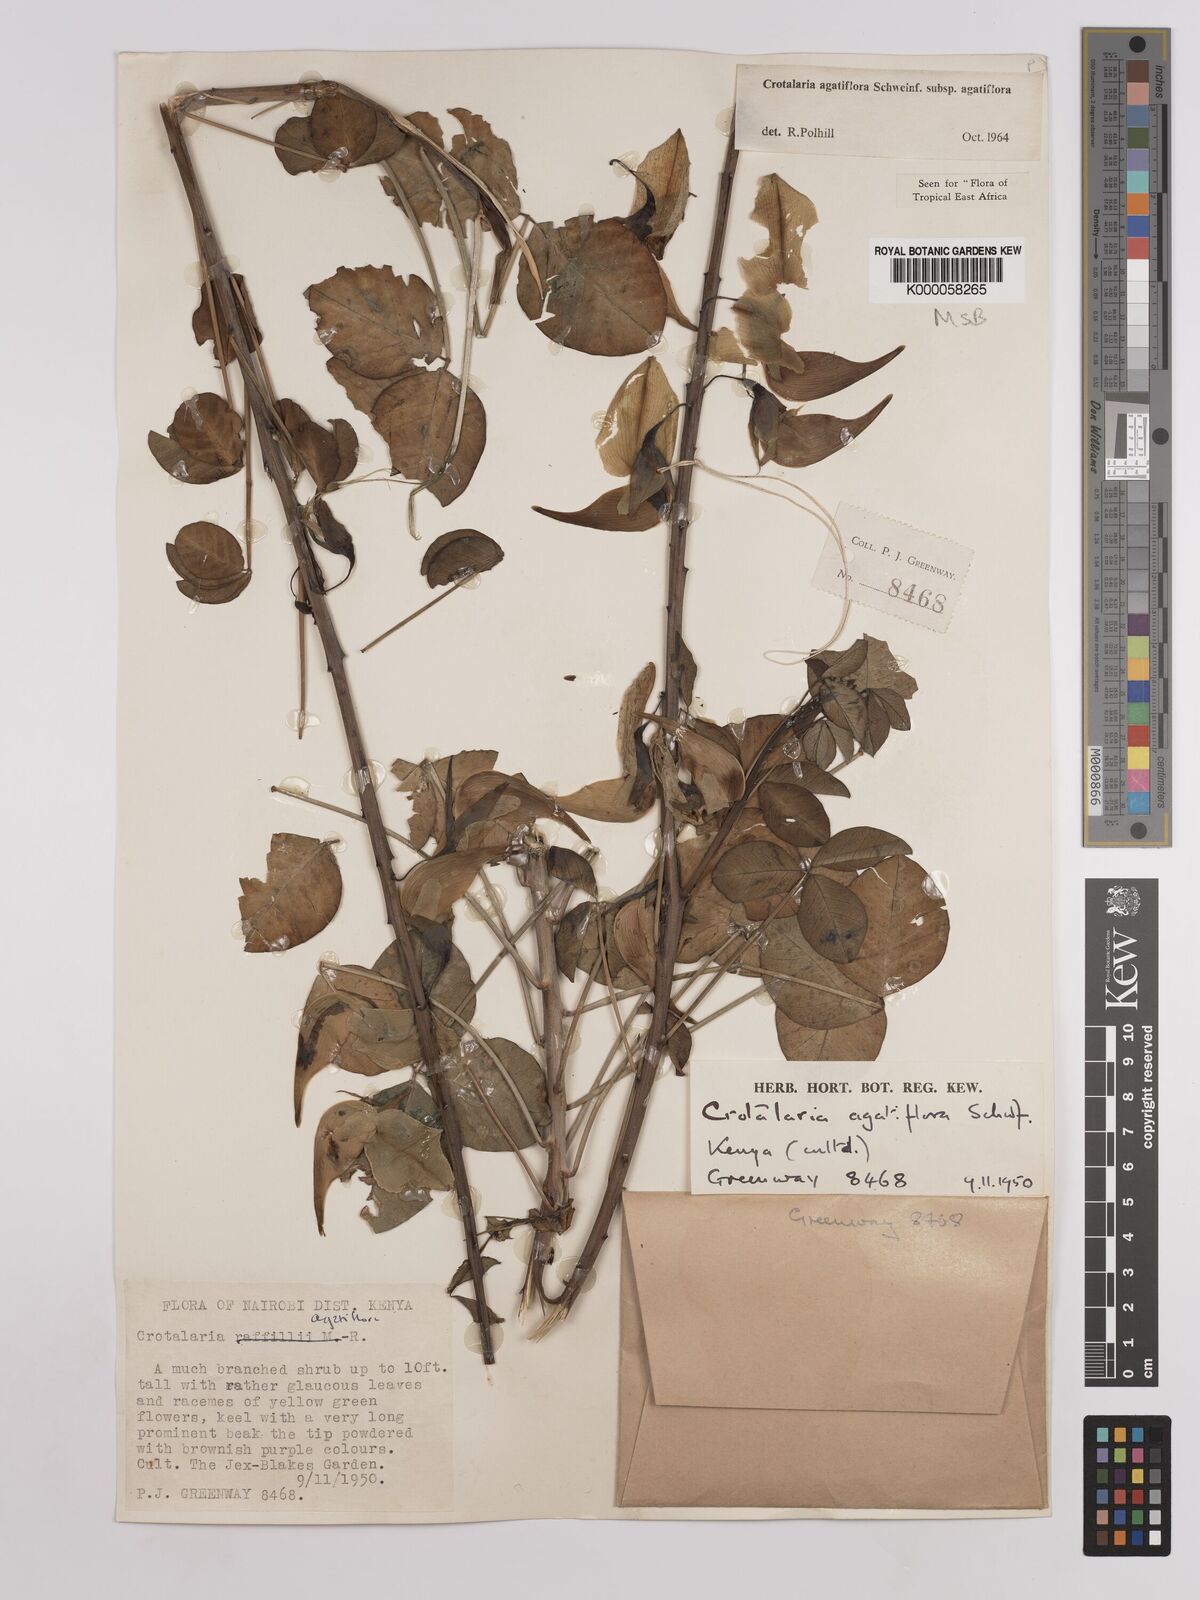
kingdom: Plantae
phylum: Tracheophyta
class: Magnoliopsida
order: Fabales
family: Fabaceae
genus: Crotalaria
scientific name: Crotalaria agatiflora
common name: Birdflower
